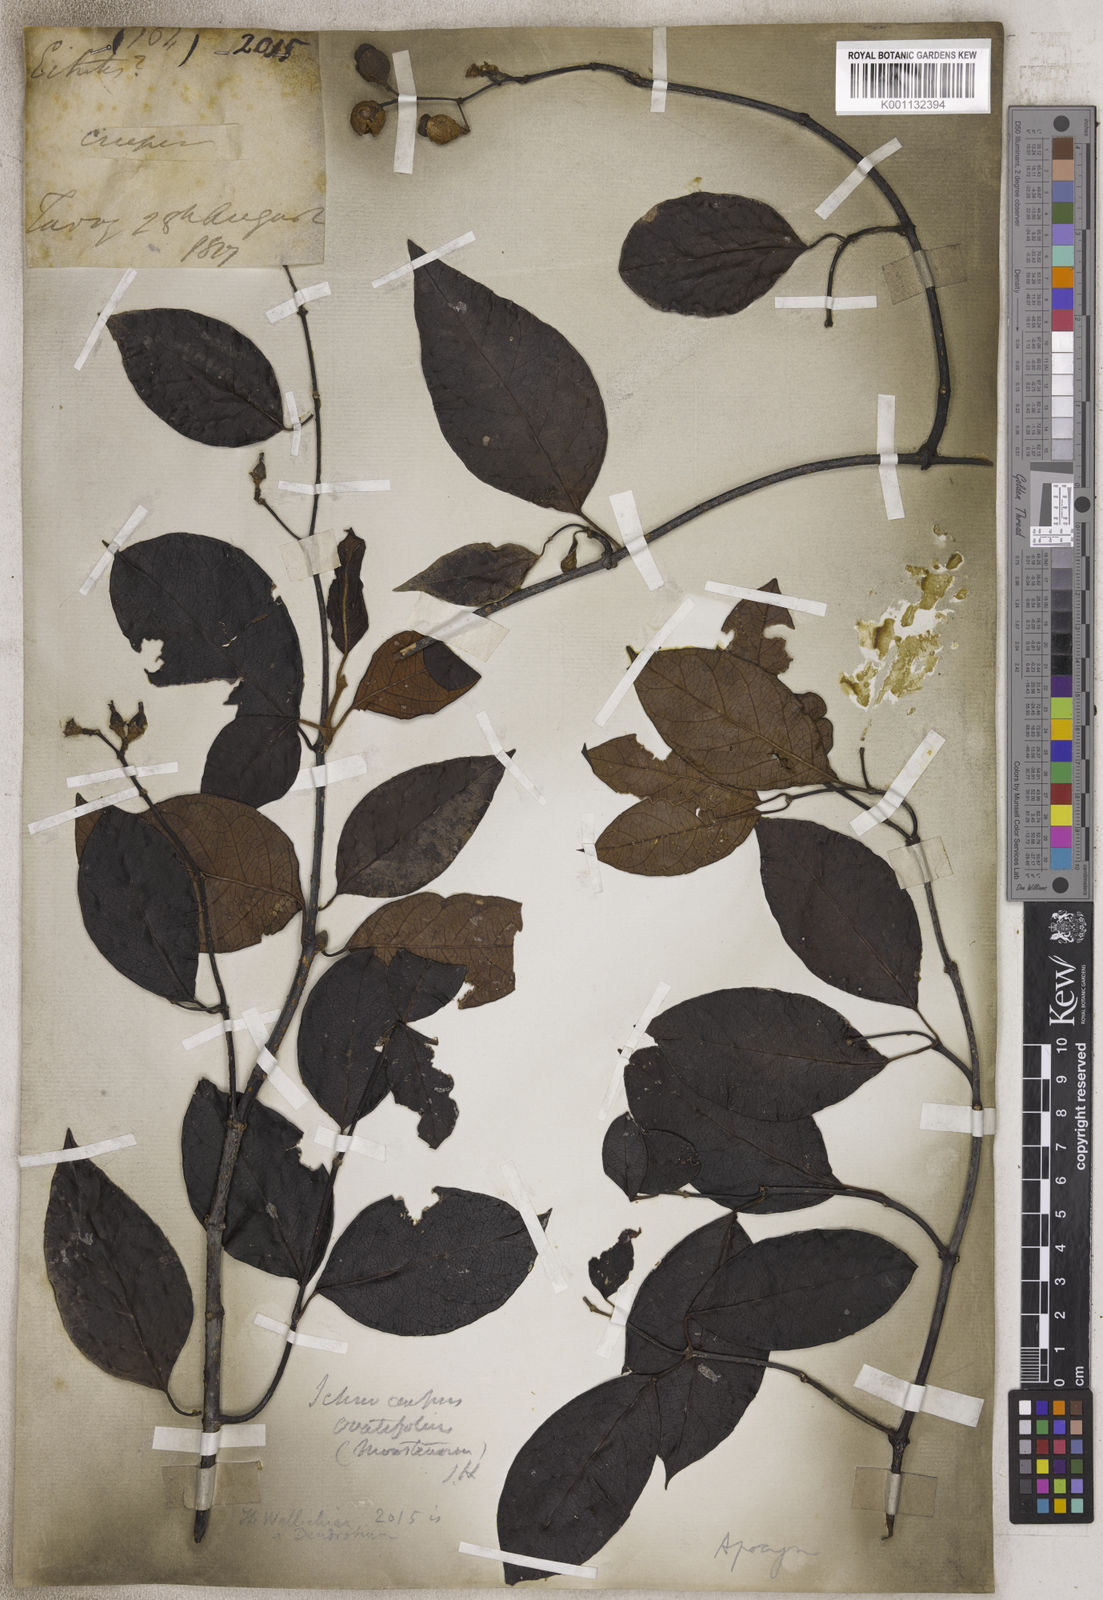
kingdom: Plantae
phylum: Tracheophyta
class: Magnoliopsida
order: Gentianales
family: Apocynaceae
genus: Ichnocarpus
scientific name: Ichnocarpus
